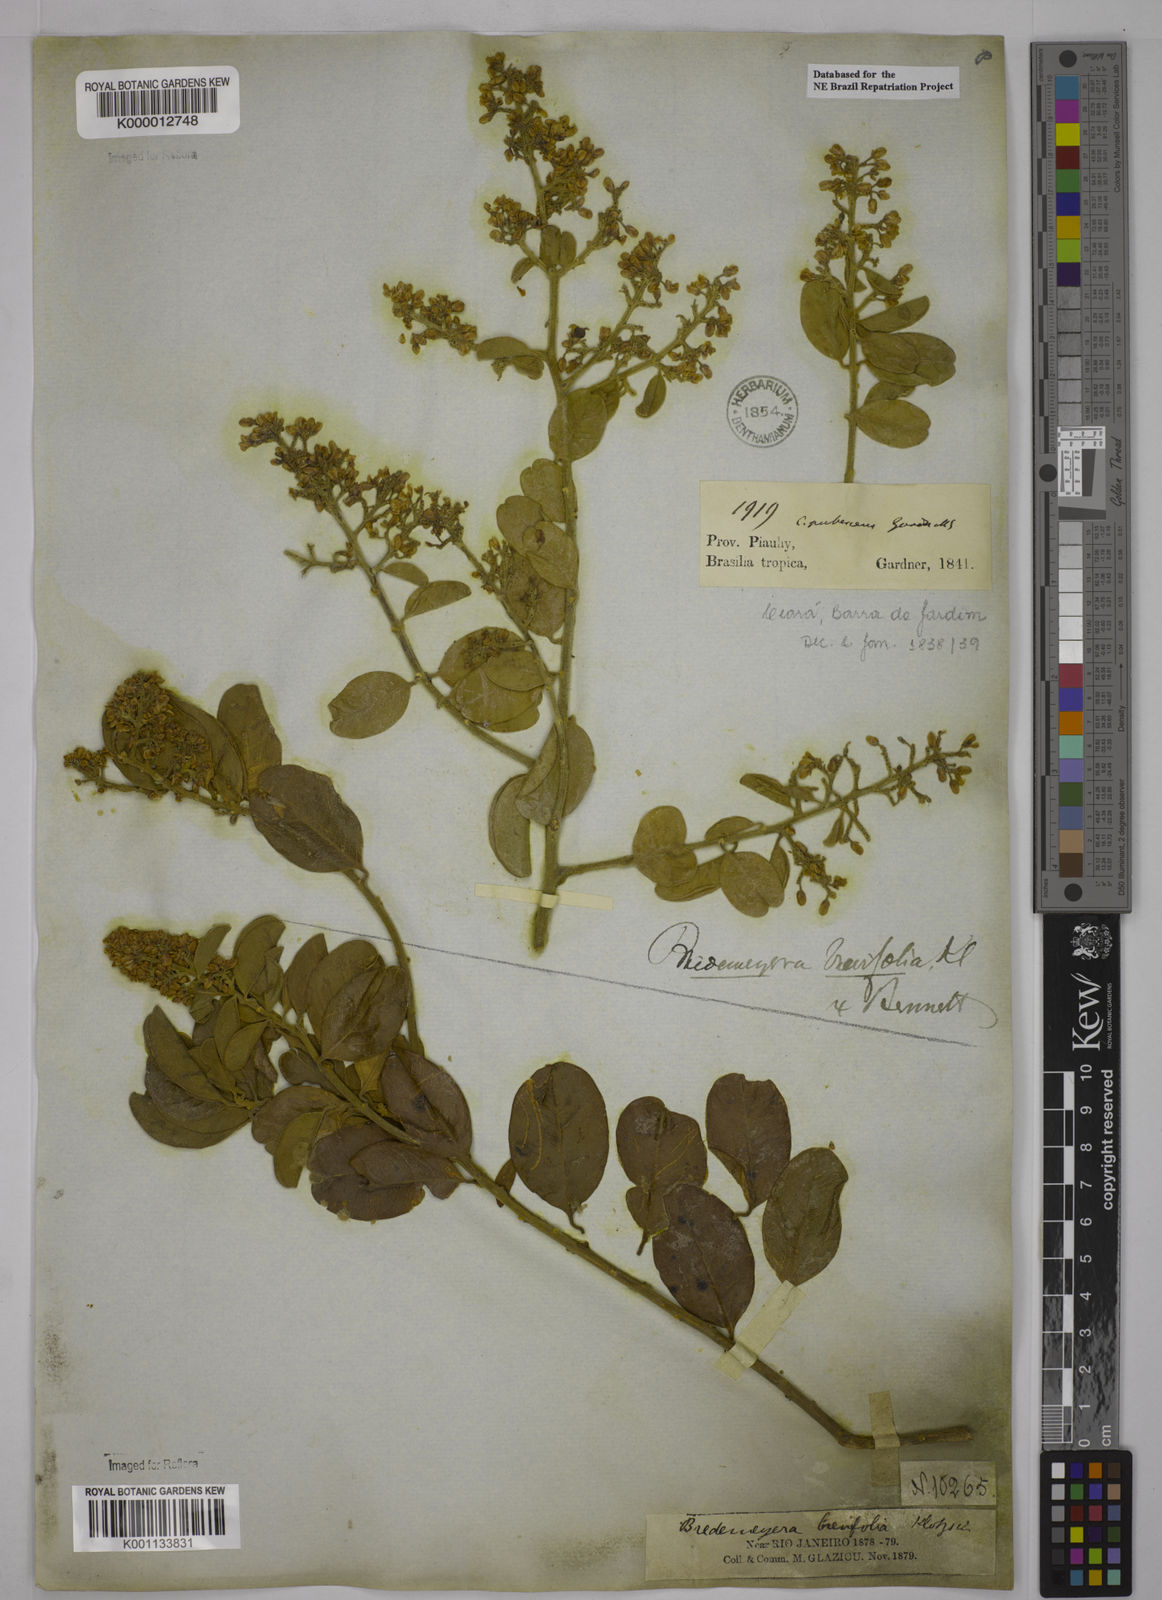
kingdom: Plantae
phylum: Tracheophyta
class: Magnoliopsida
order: Fabales
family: Polygalaceae
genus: Bredemeyera
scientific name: Bredemeyera brevifolia
